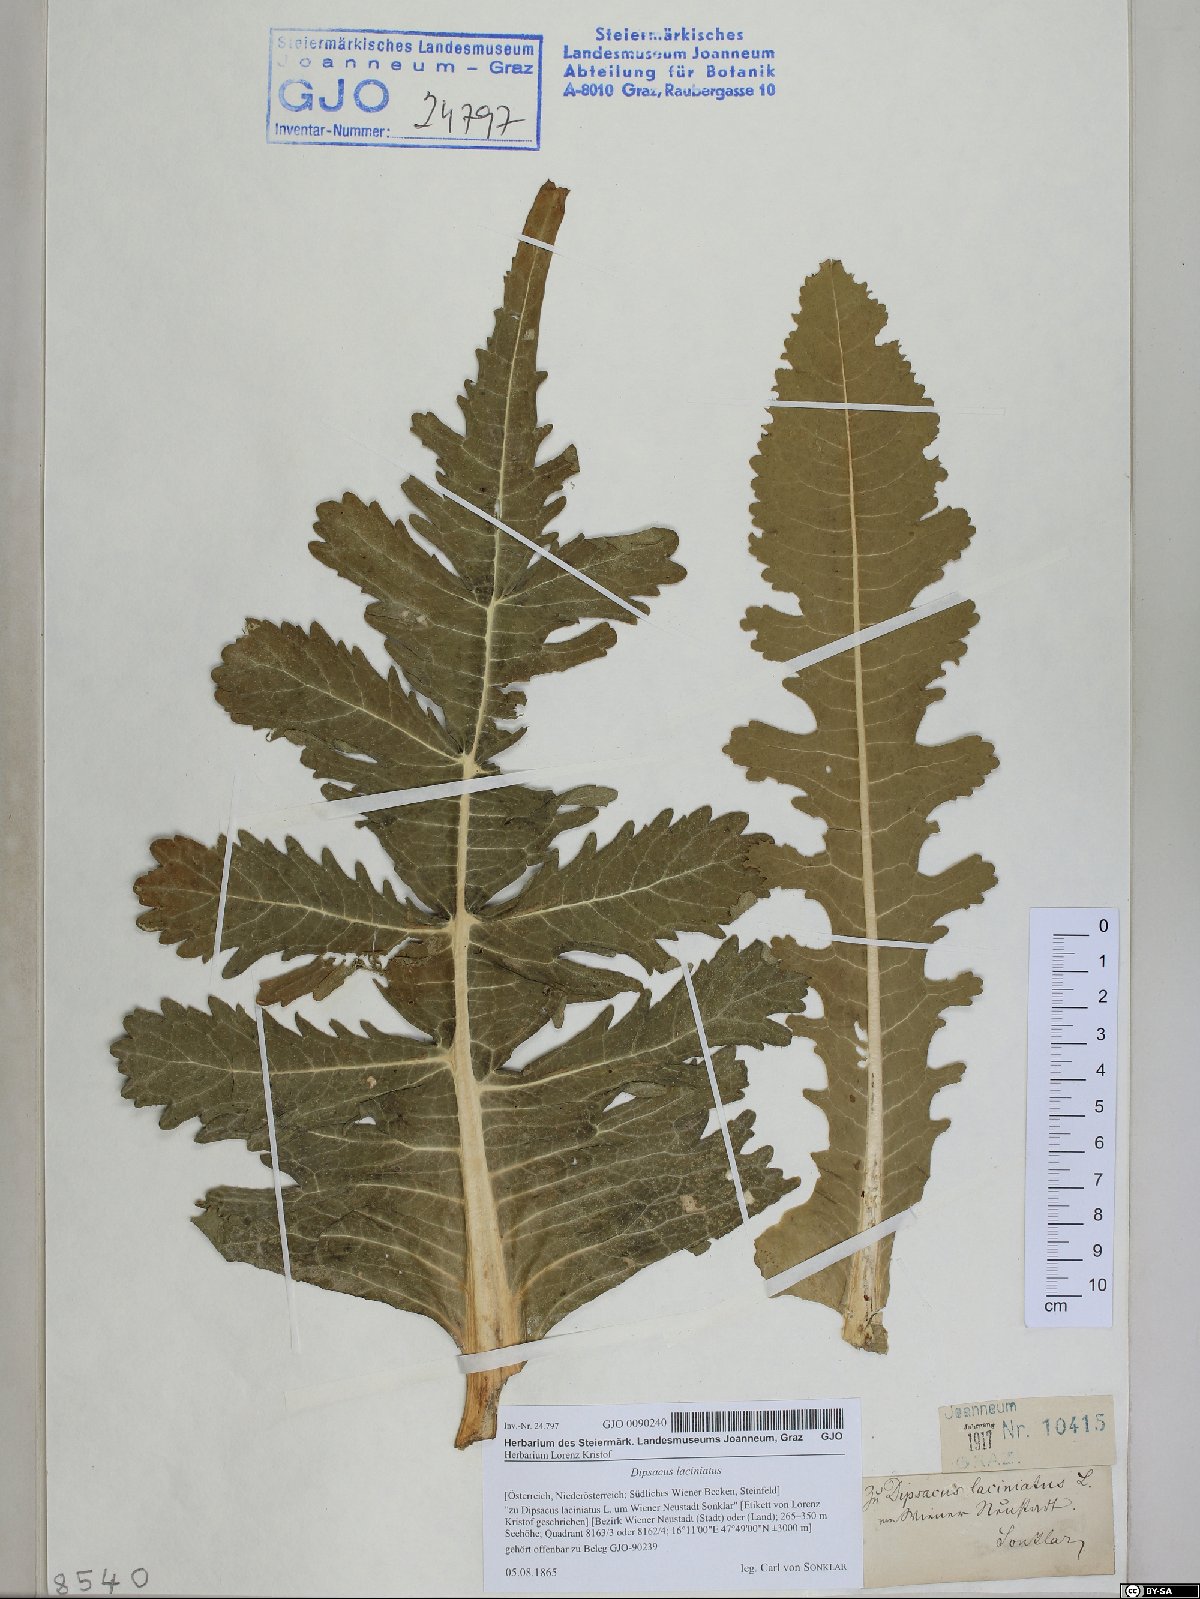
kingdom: Plantae
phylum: Tracheophyta
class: Magnoliopsida
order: Dipsacales
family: Caprifoliaceae
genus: Dipsacus
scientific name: Dipsacus laciniatus
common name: Cut-leaved teasel
